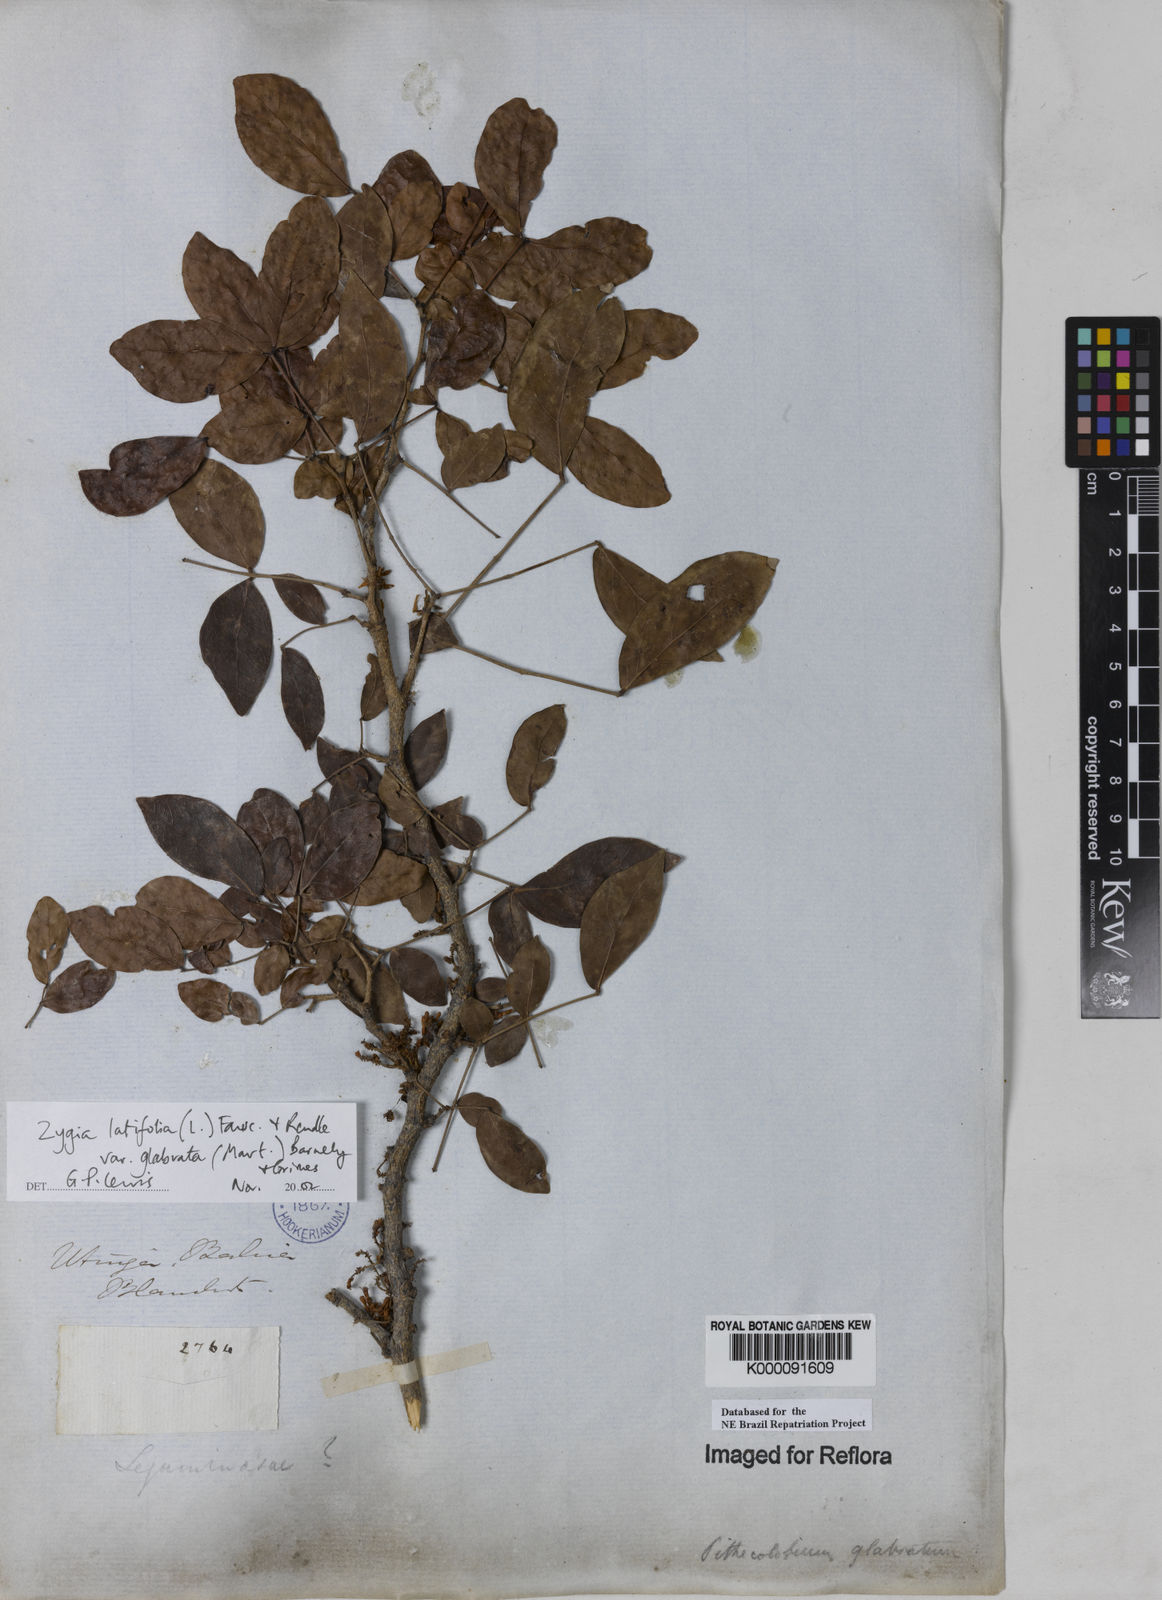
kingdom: Plantae
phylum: Tracheophyta
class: Magnoliopsida
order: Fabales
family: Fabaceae
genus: Zygia
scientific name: Zygia latifolia
